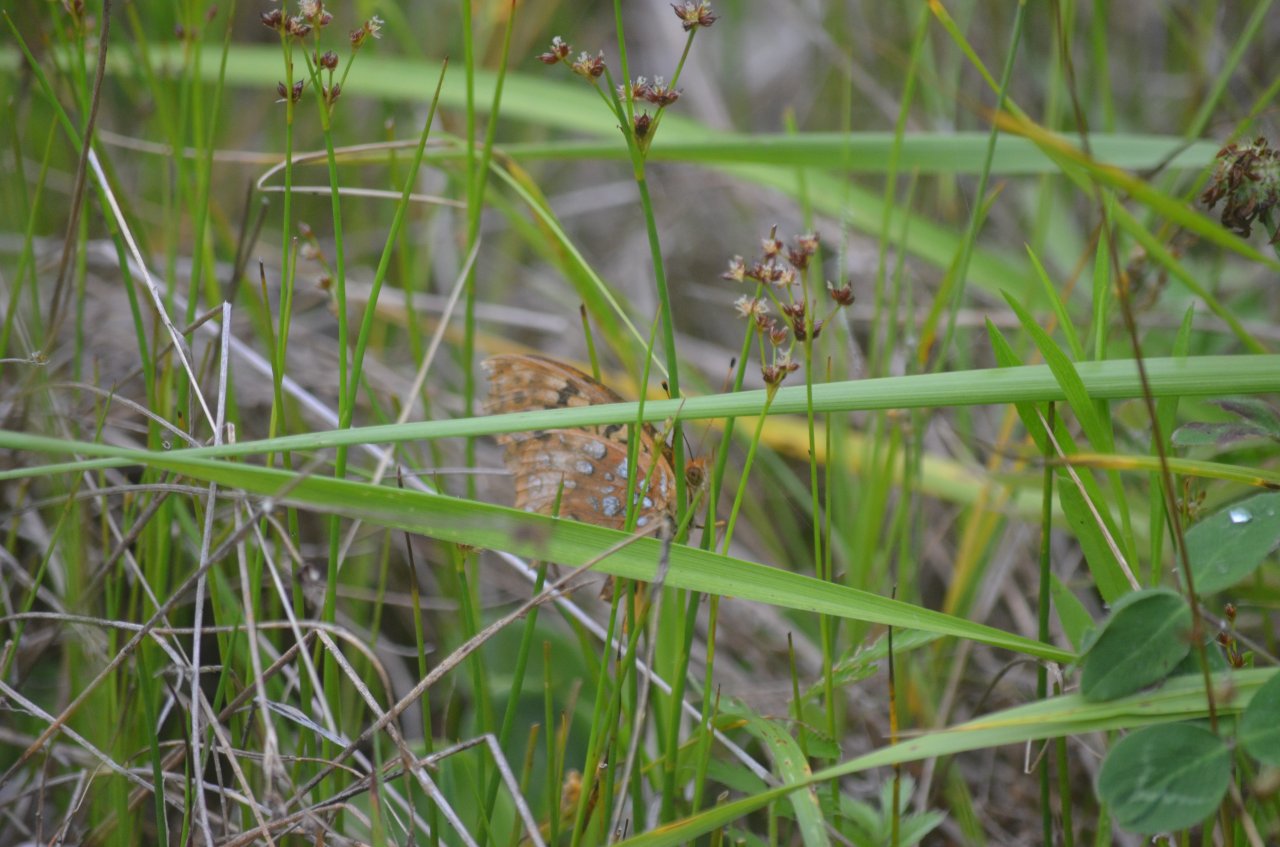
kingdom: Animalia
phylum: Arthropoda
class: Insecta
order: Lepidoptera
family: Nymphalidae
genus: Speyeria
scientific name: Speyeria cybele
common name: Great Spangled Fritillary
